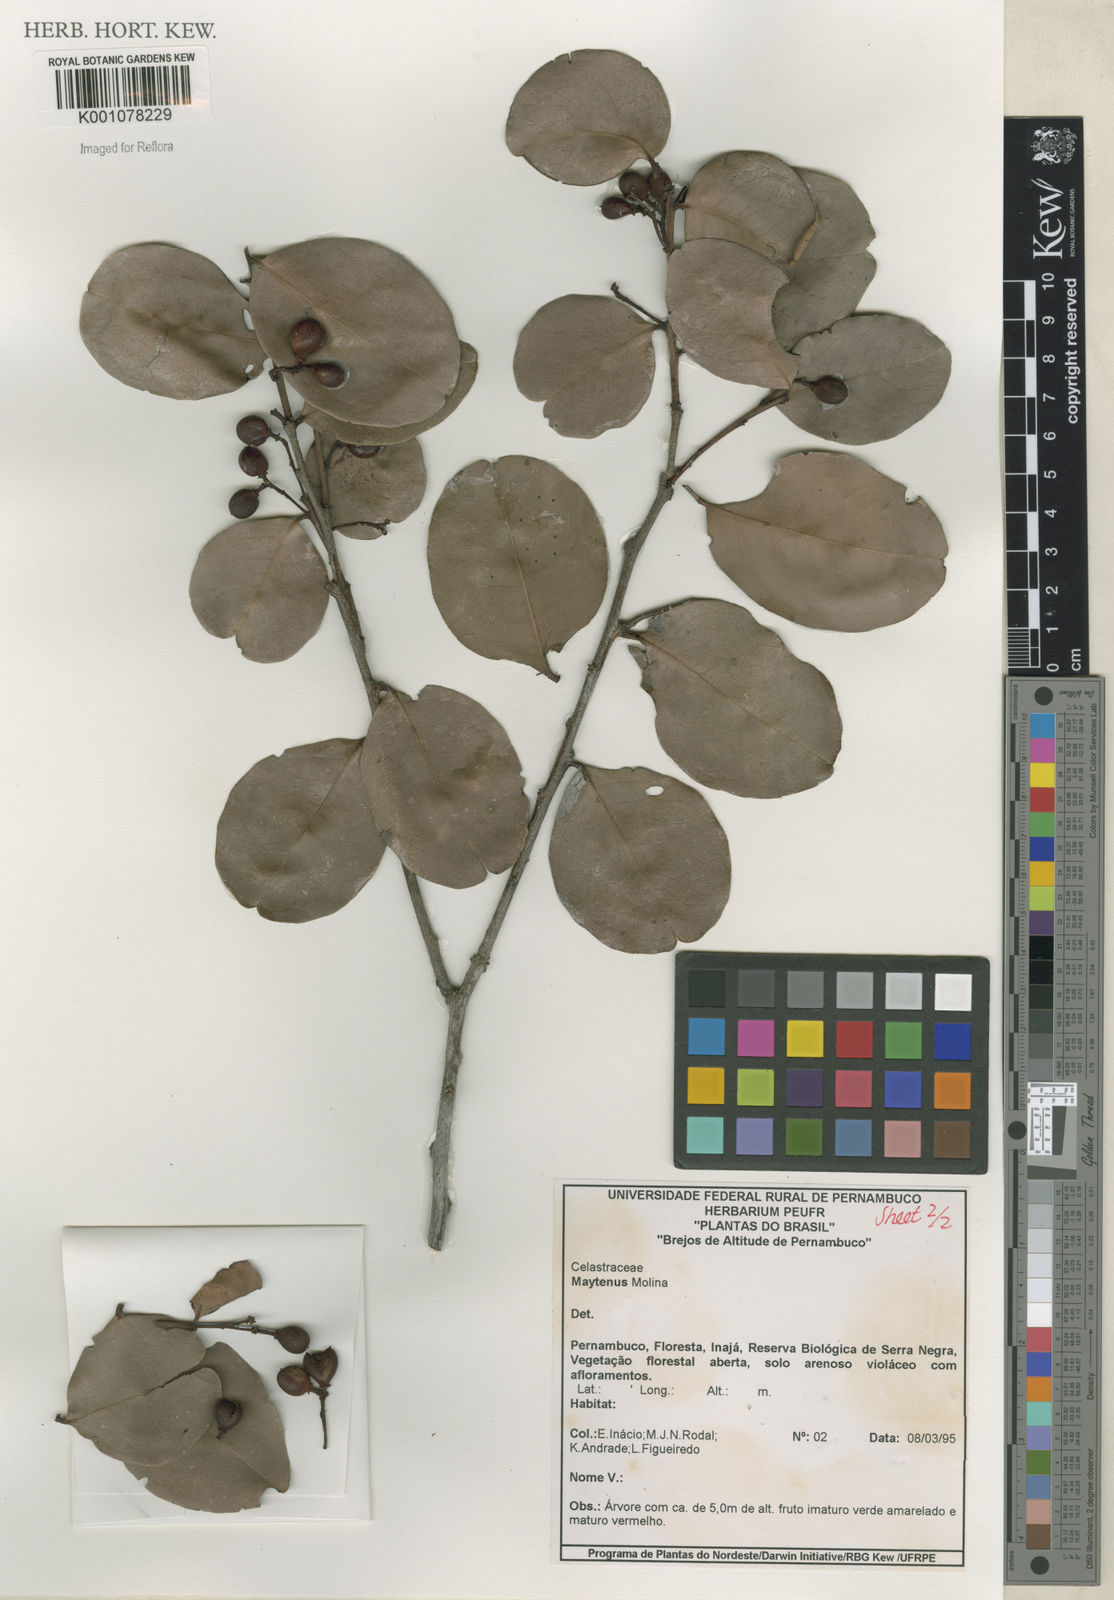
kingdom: Plantae
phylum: Tracheophyta
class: Magnoliopsida
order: Celastrales
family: Celastraceae
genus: Maytenus
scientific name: Maytenus
